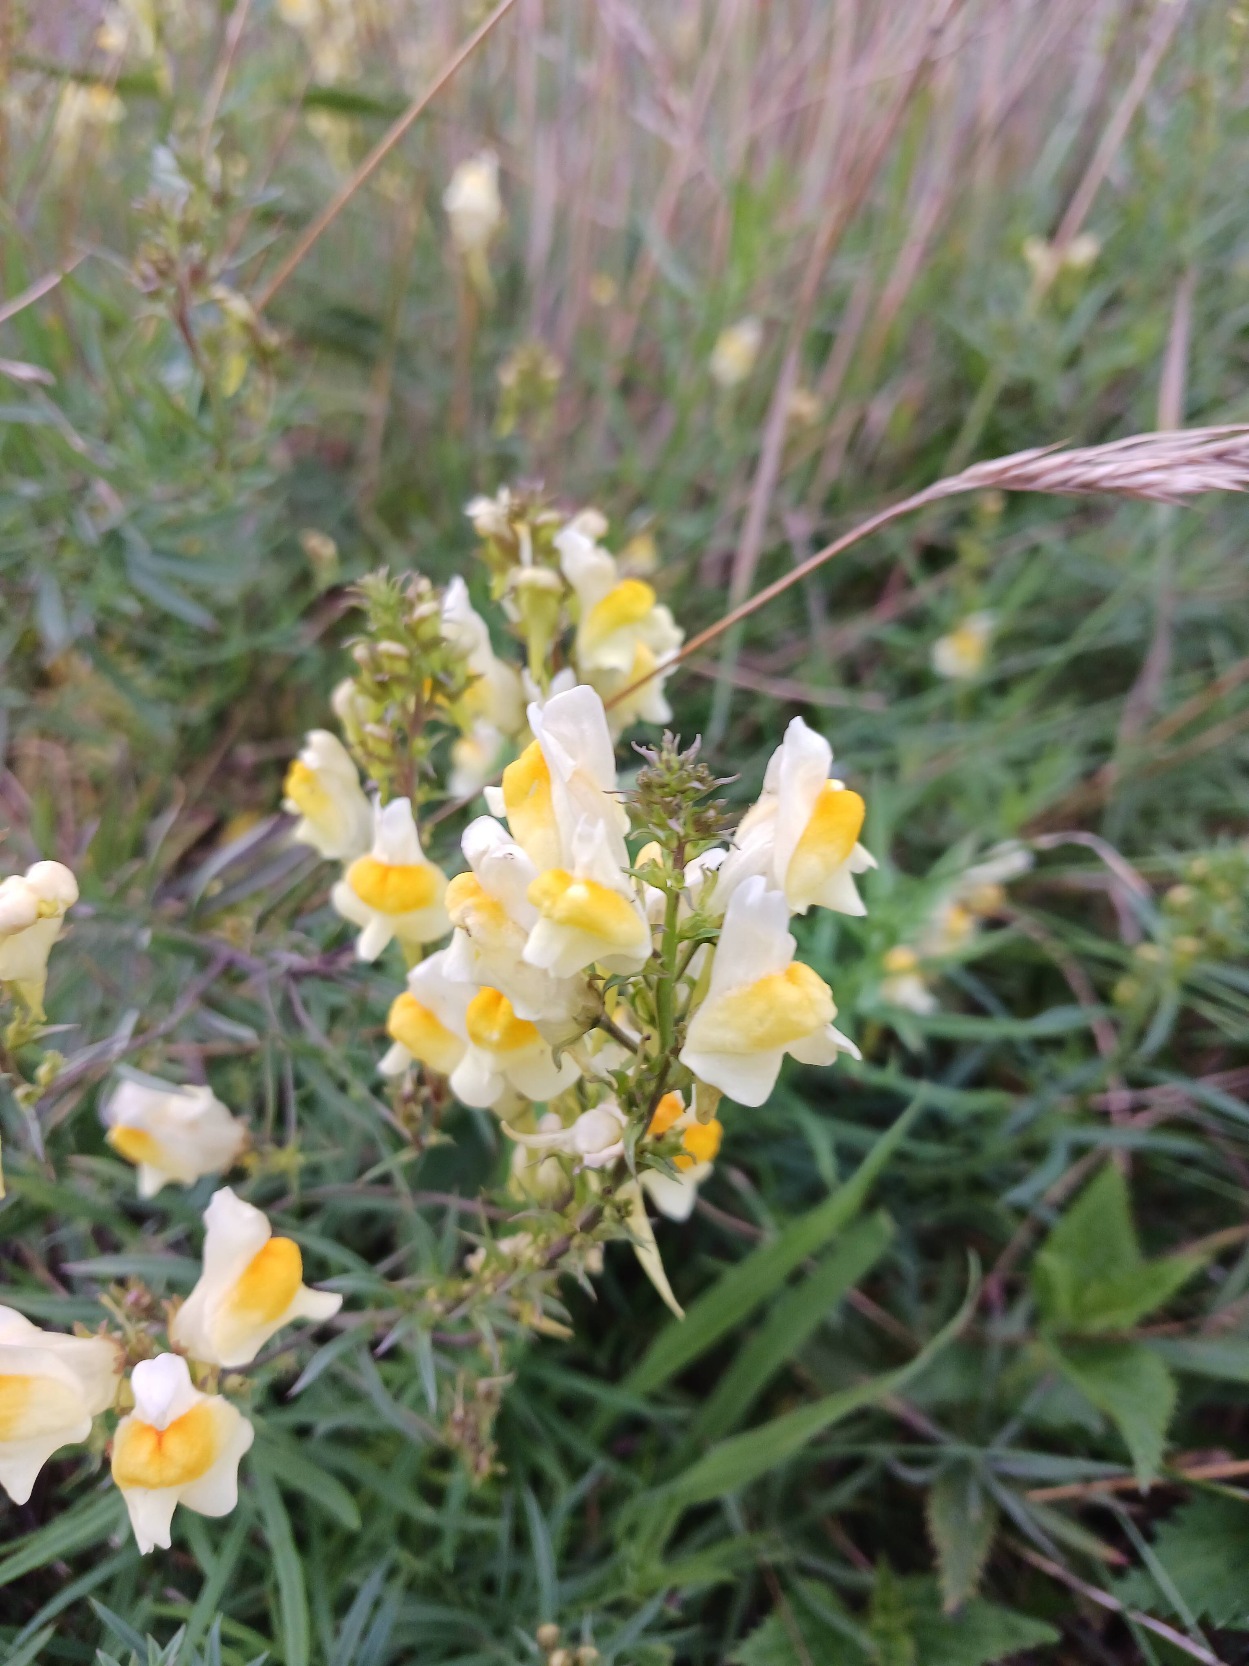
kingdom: Plantae
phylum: Tracheophyta
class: Magnoliopsida
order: Lamiales
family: Plantaginaceae
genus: Linaria
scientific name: Linaria vulgaris
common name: Almindelig torskemund
